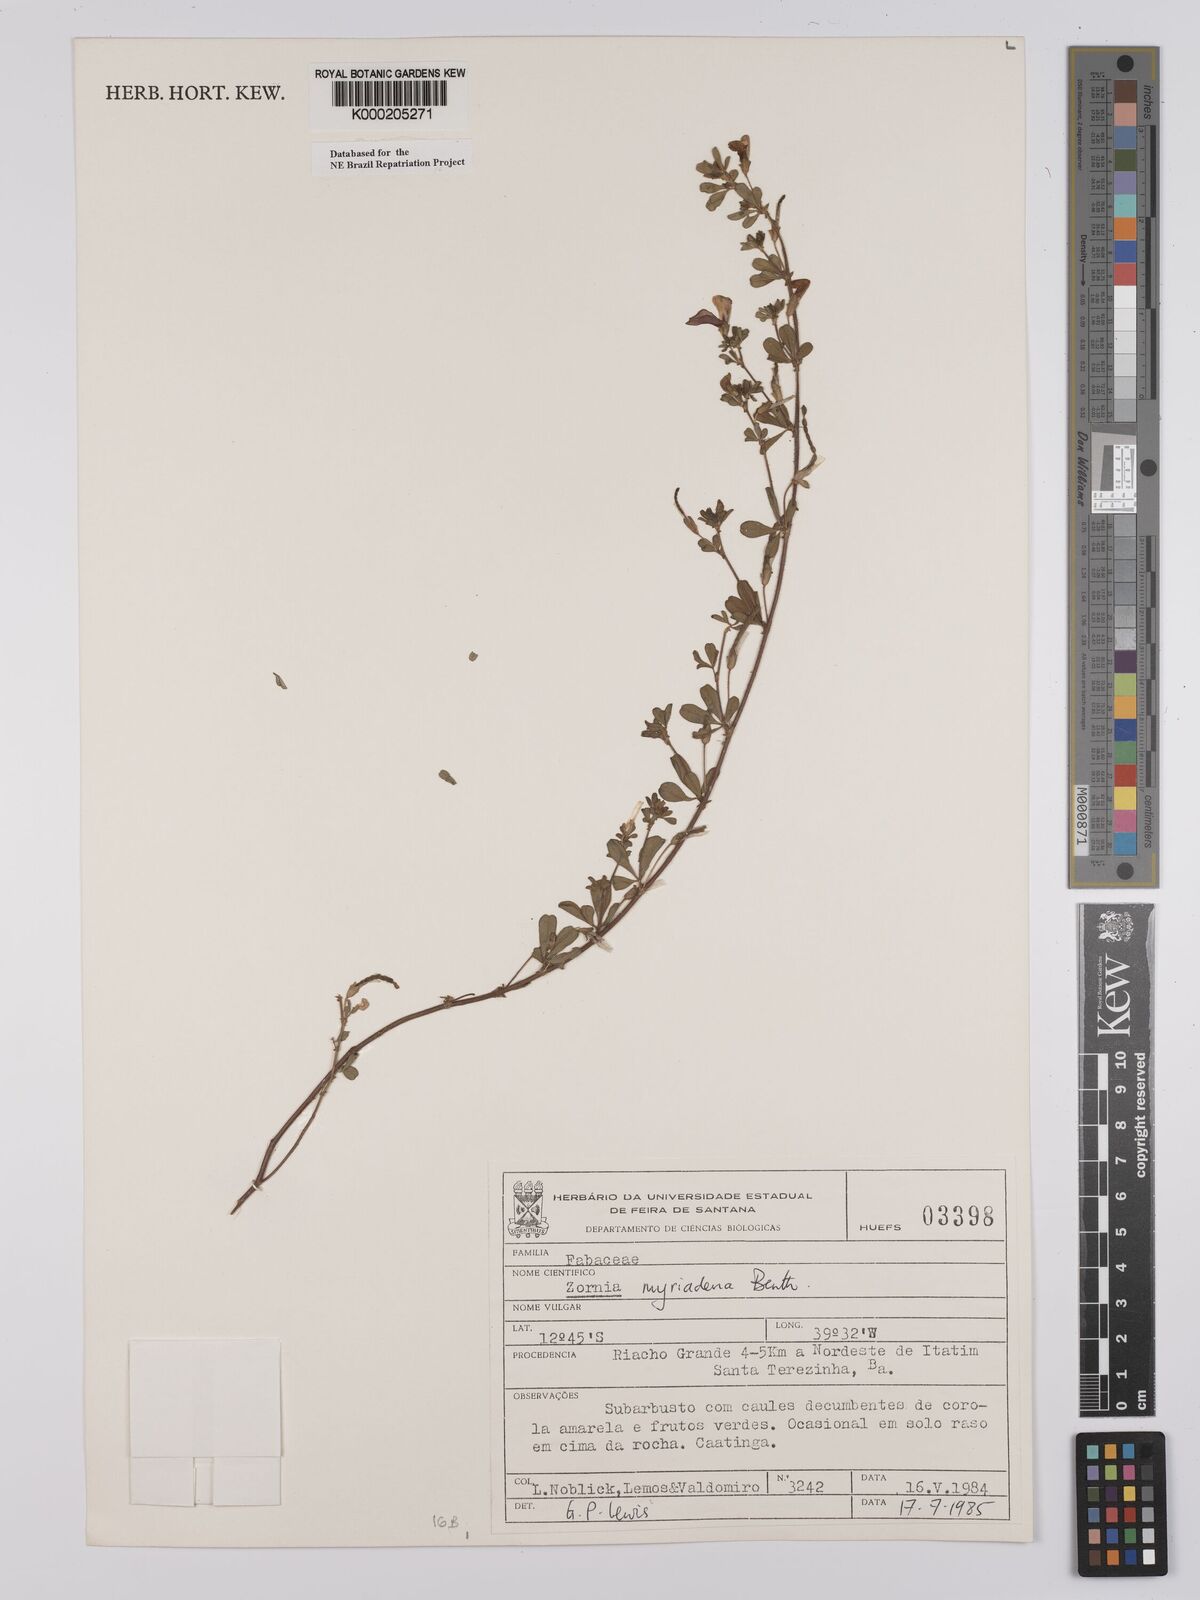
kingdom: Plantae
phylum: Tracheophyta
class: Magnoliopsida
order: Fabales
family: Fabaceae
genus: Zornia
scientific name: Zornia myriadena
